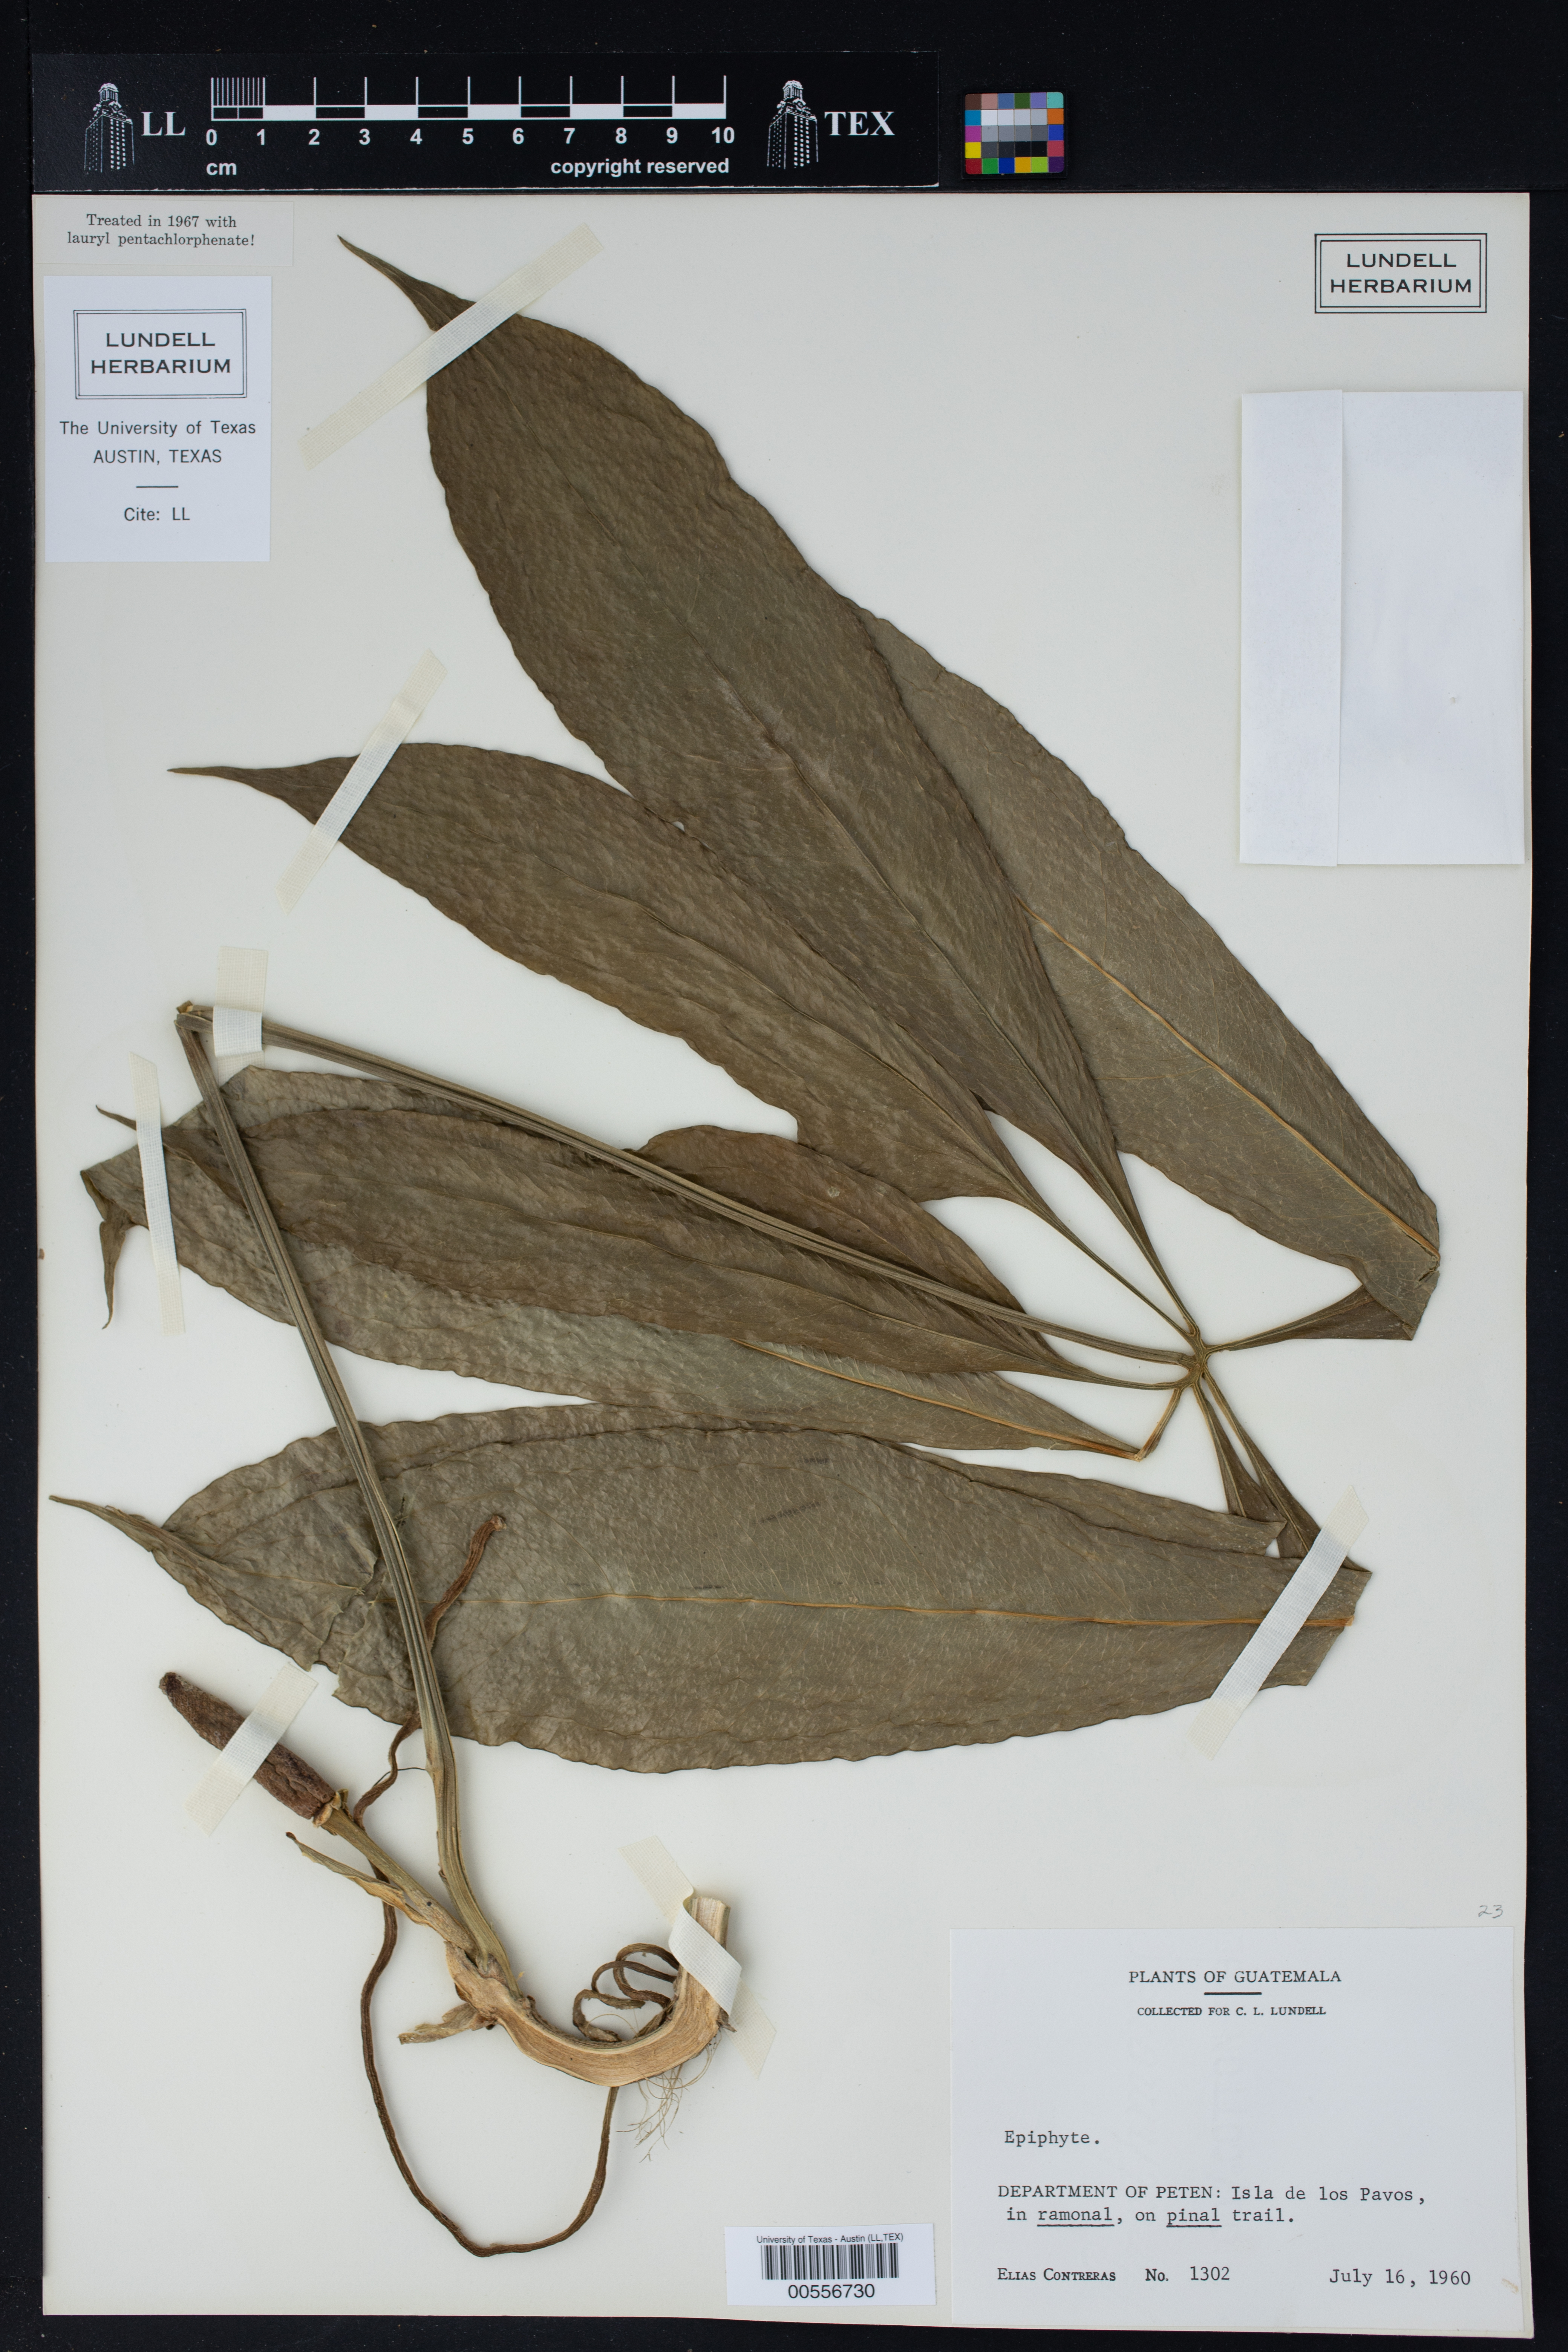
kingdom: Plantae
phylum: Tracheophyta
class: Liliopsida
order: Alismatales
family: Araceae
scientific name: Araceae
